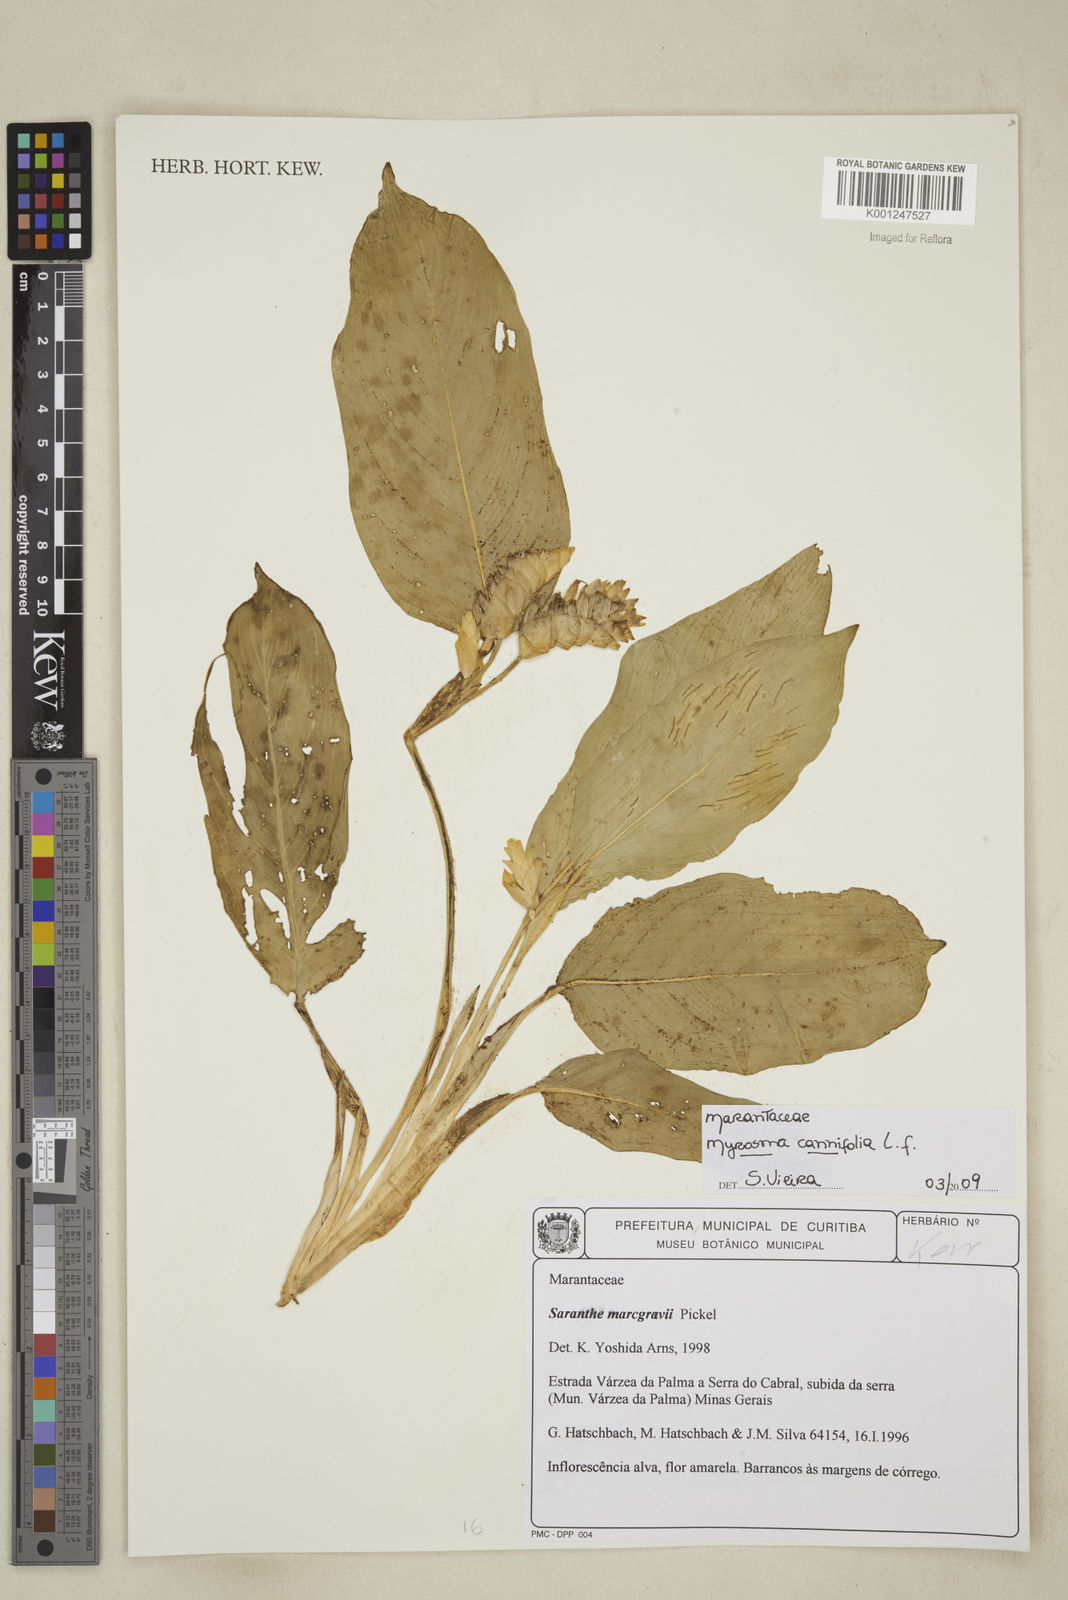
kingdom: Plantae
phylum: Tracheophyta
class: Liliopsida
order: Zingiberales
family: Marantaceae
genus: Myrosma
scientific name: Myrosma cannifolia
